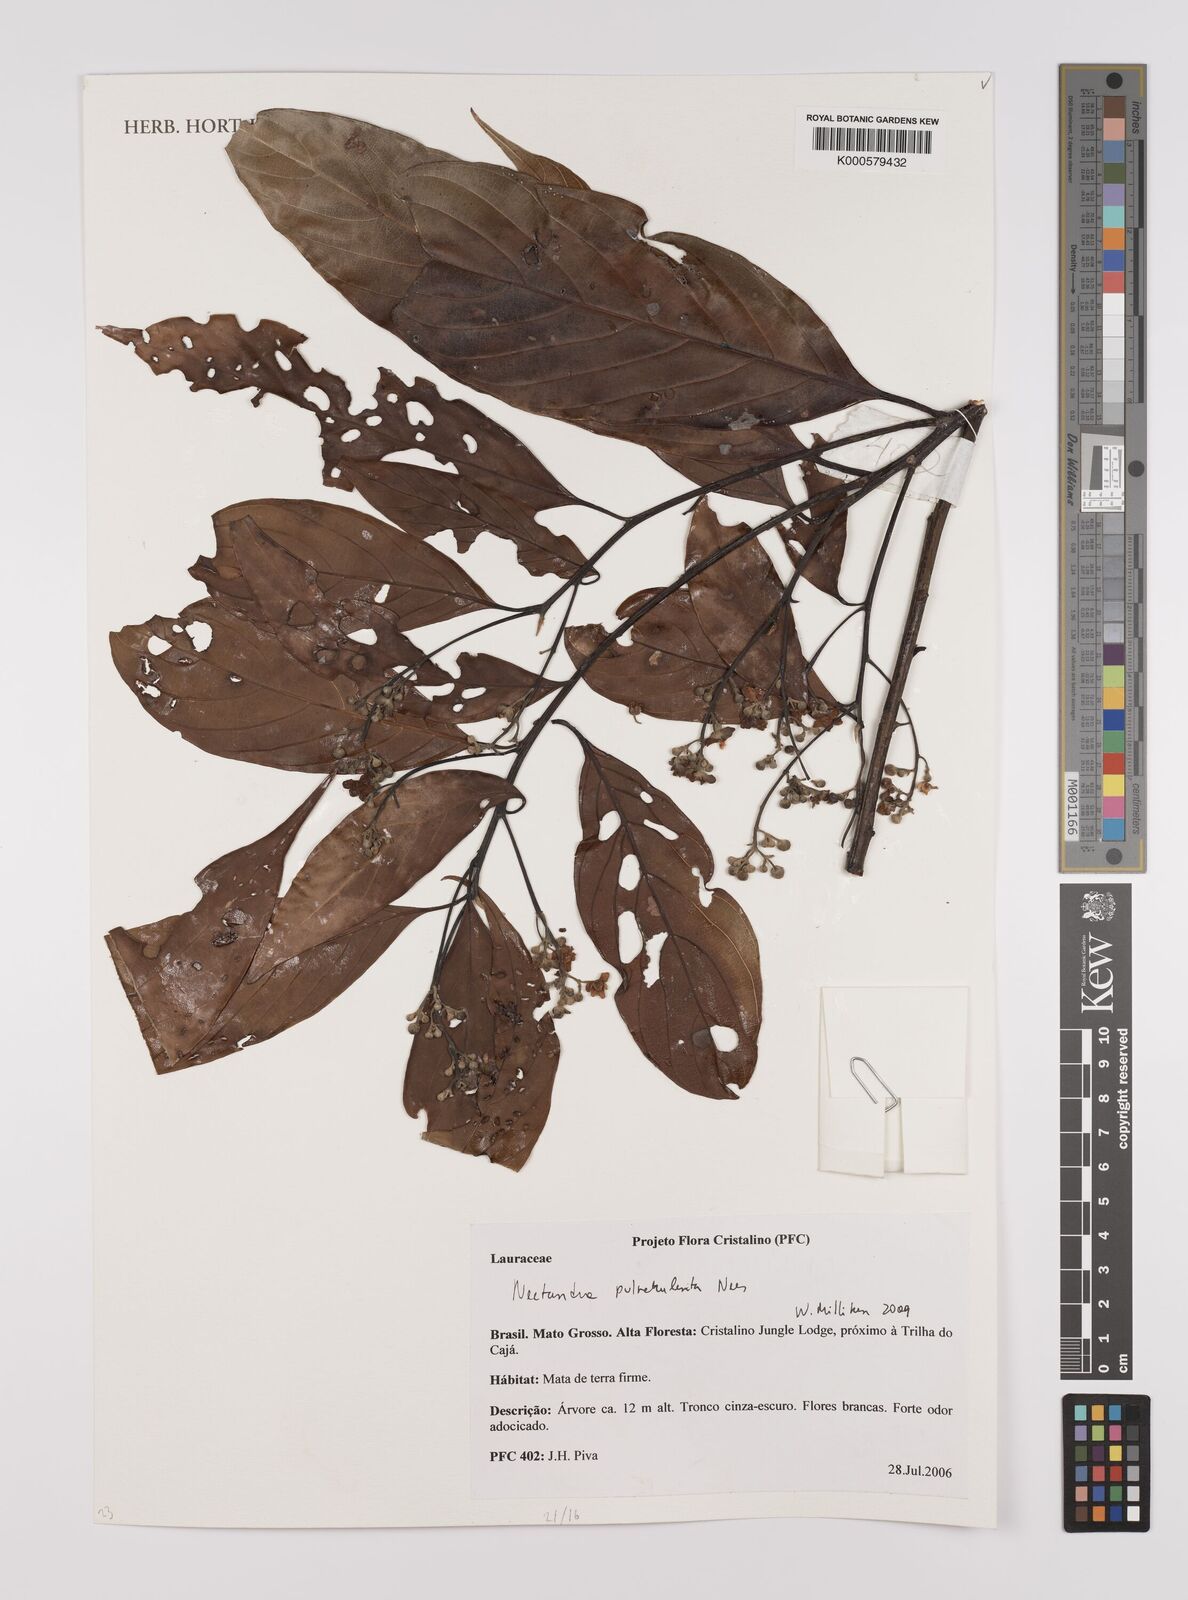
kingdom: Plantae
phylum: Tracheophyta
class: Magnoliopsida
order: Laurales
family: Lauraceae
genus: Nectandra
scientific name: Nectandra pulverulenta
